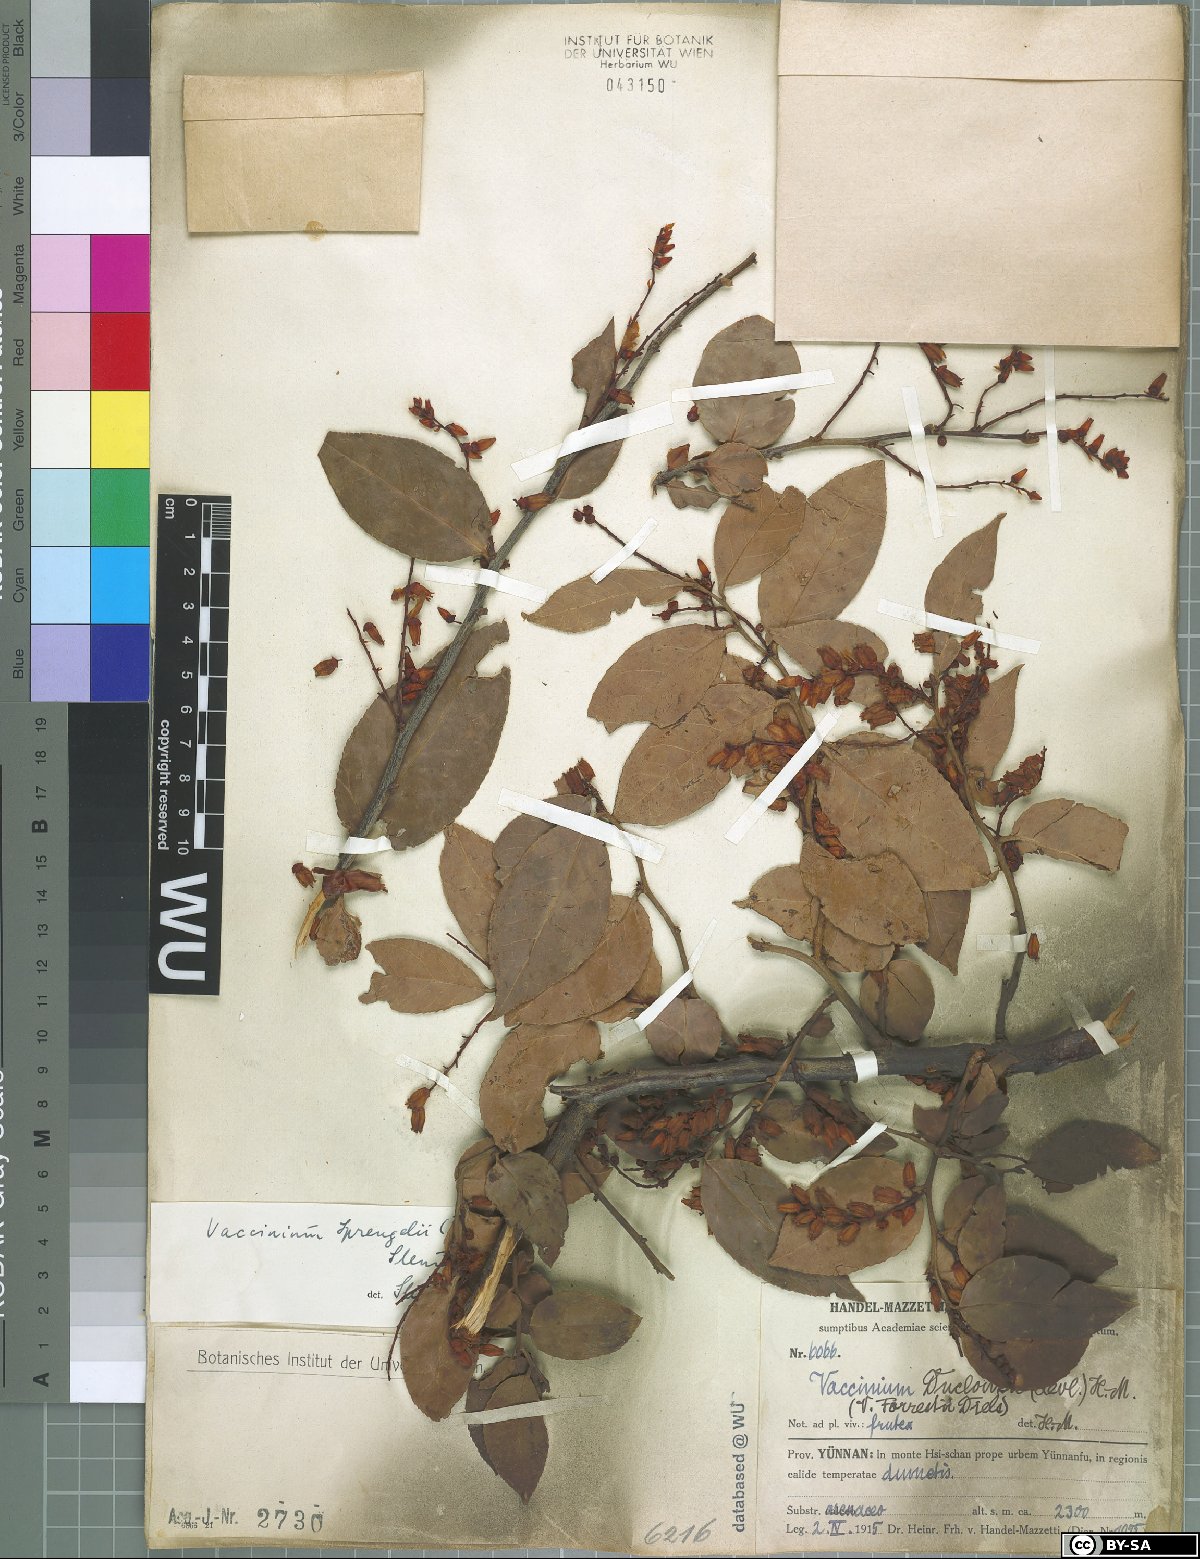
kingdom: Plantae
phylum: Tracheophyta
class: Magnoliopsida
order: Ericales
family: Ericaceae
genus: Vaccinium
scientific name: Vaccinium sprengelii
